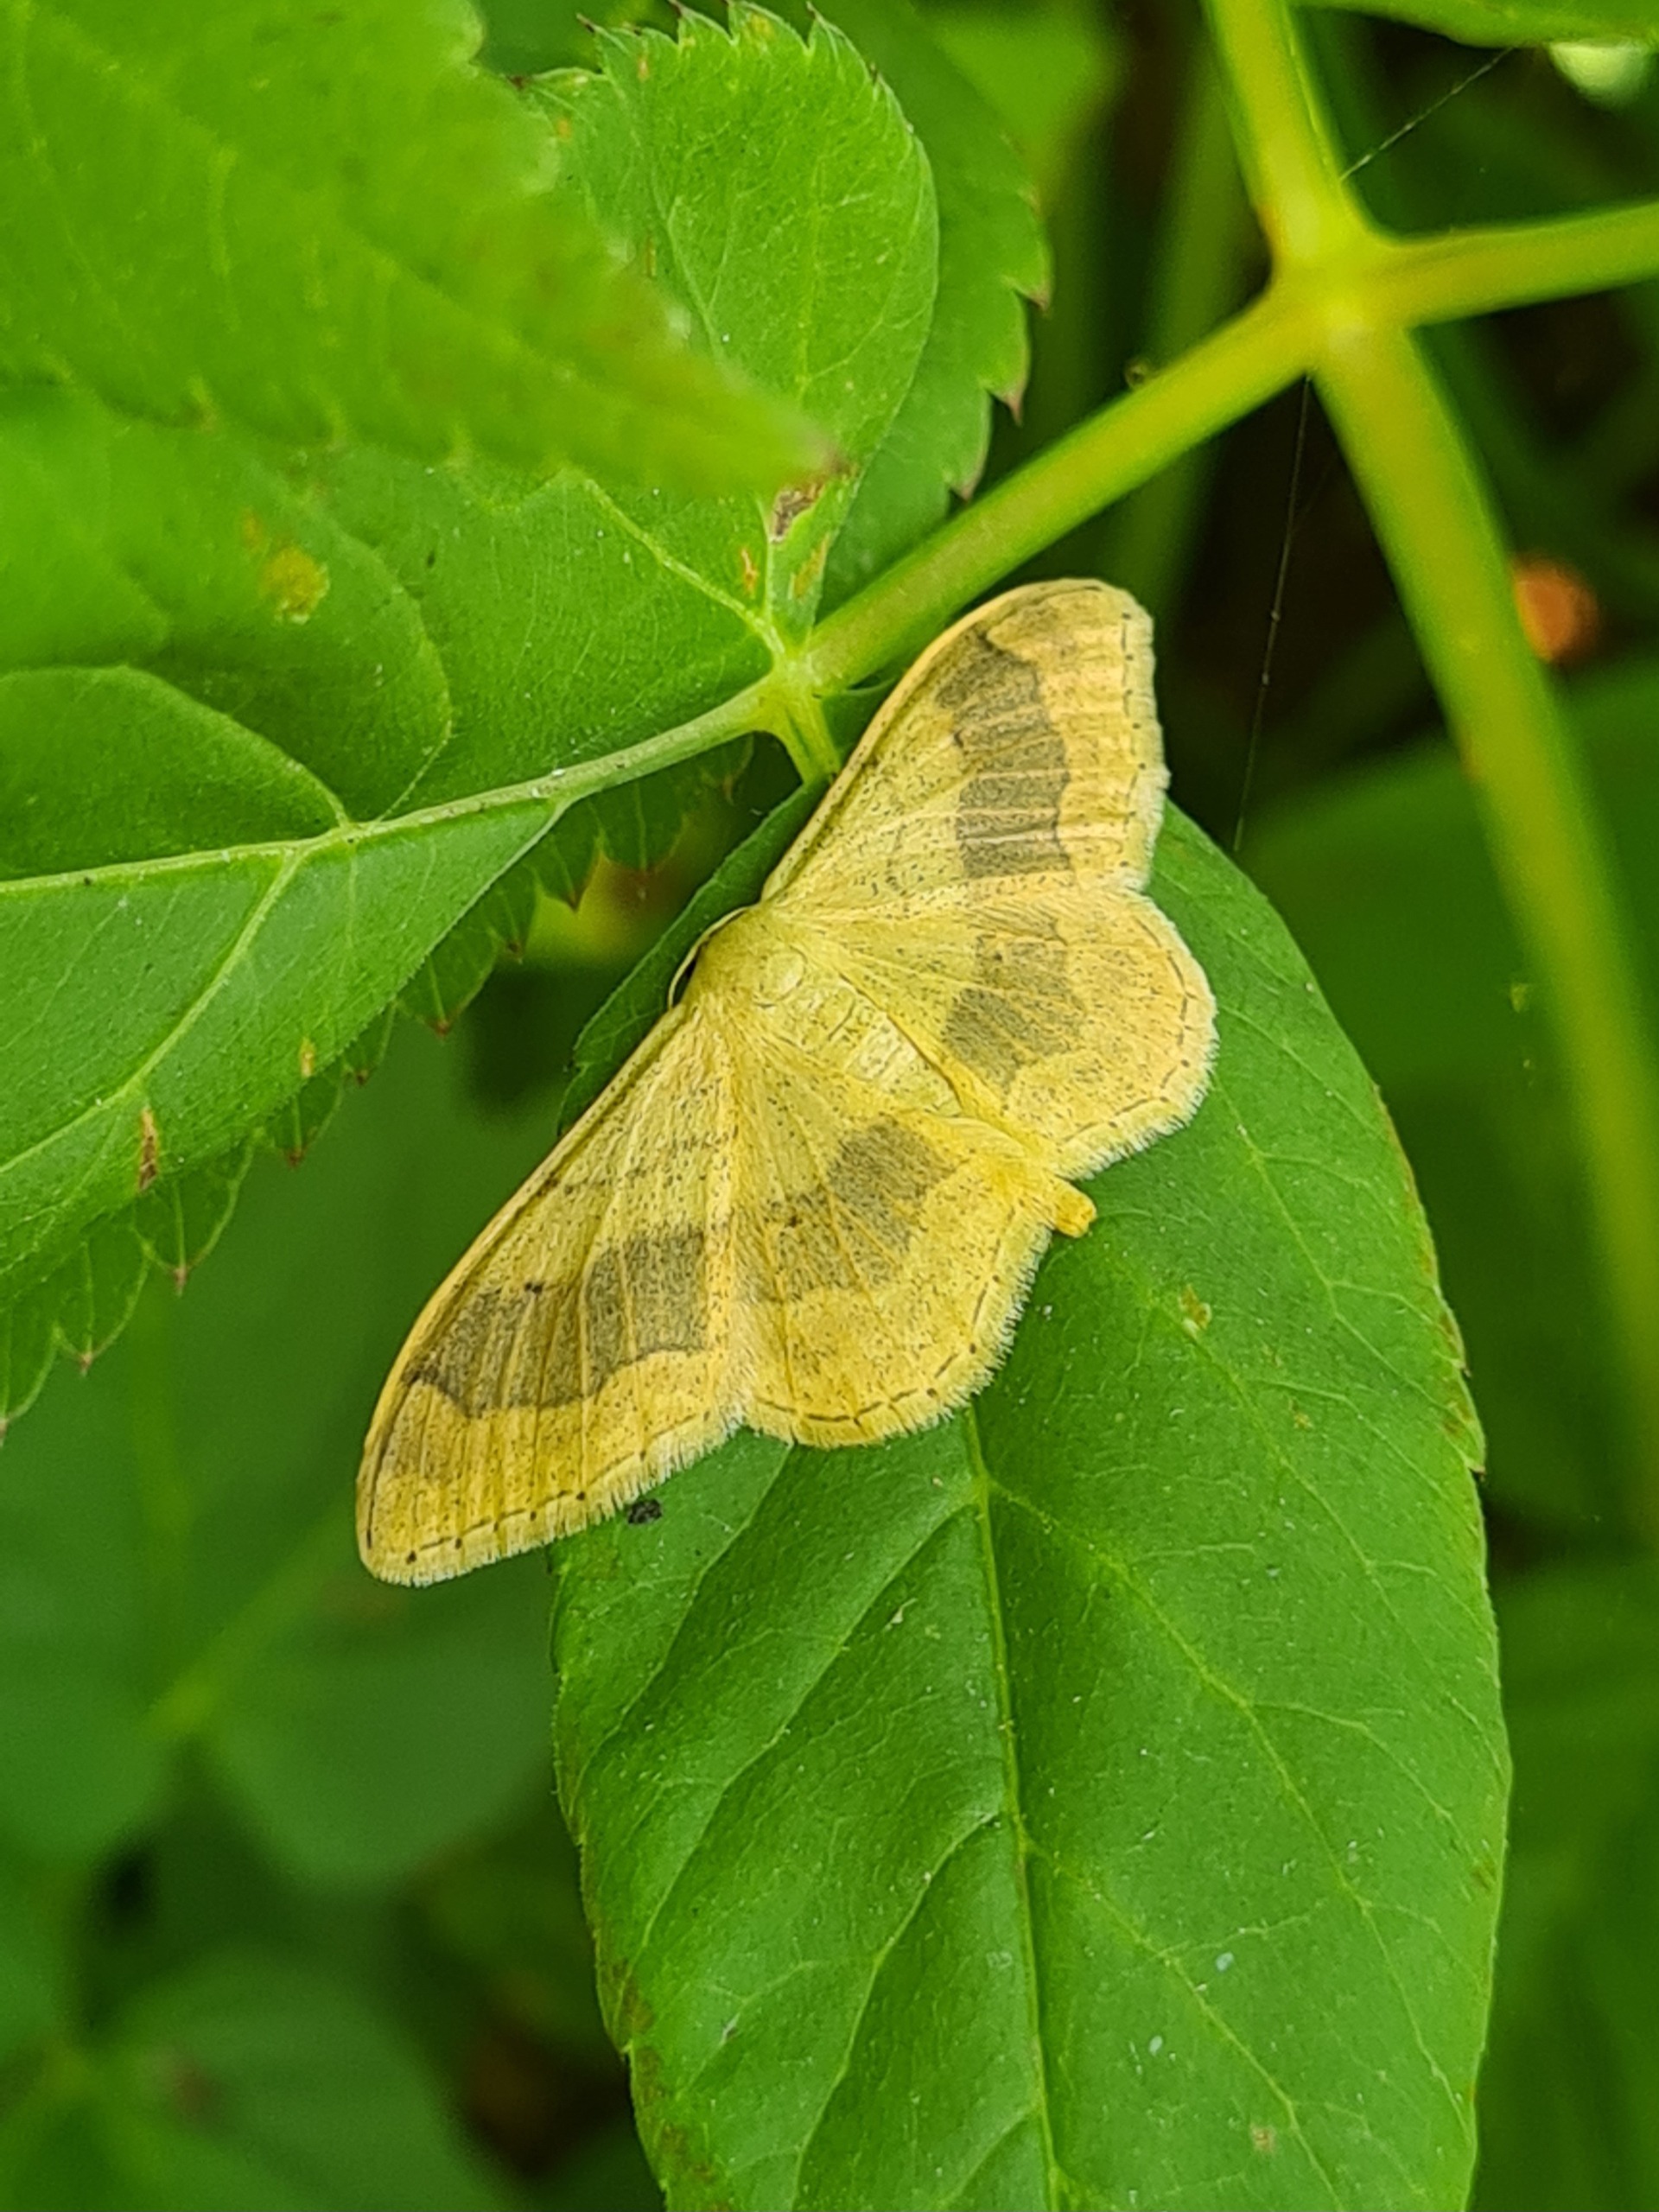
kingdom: Animalia
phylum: Arthropoda
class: Insecta
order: Lepidoptera
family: Geometridae
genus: Idaea
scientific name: Idaea aversata
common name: Vinkelstreget løvmåler
